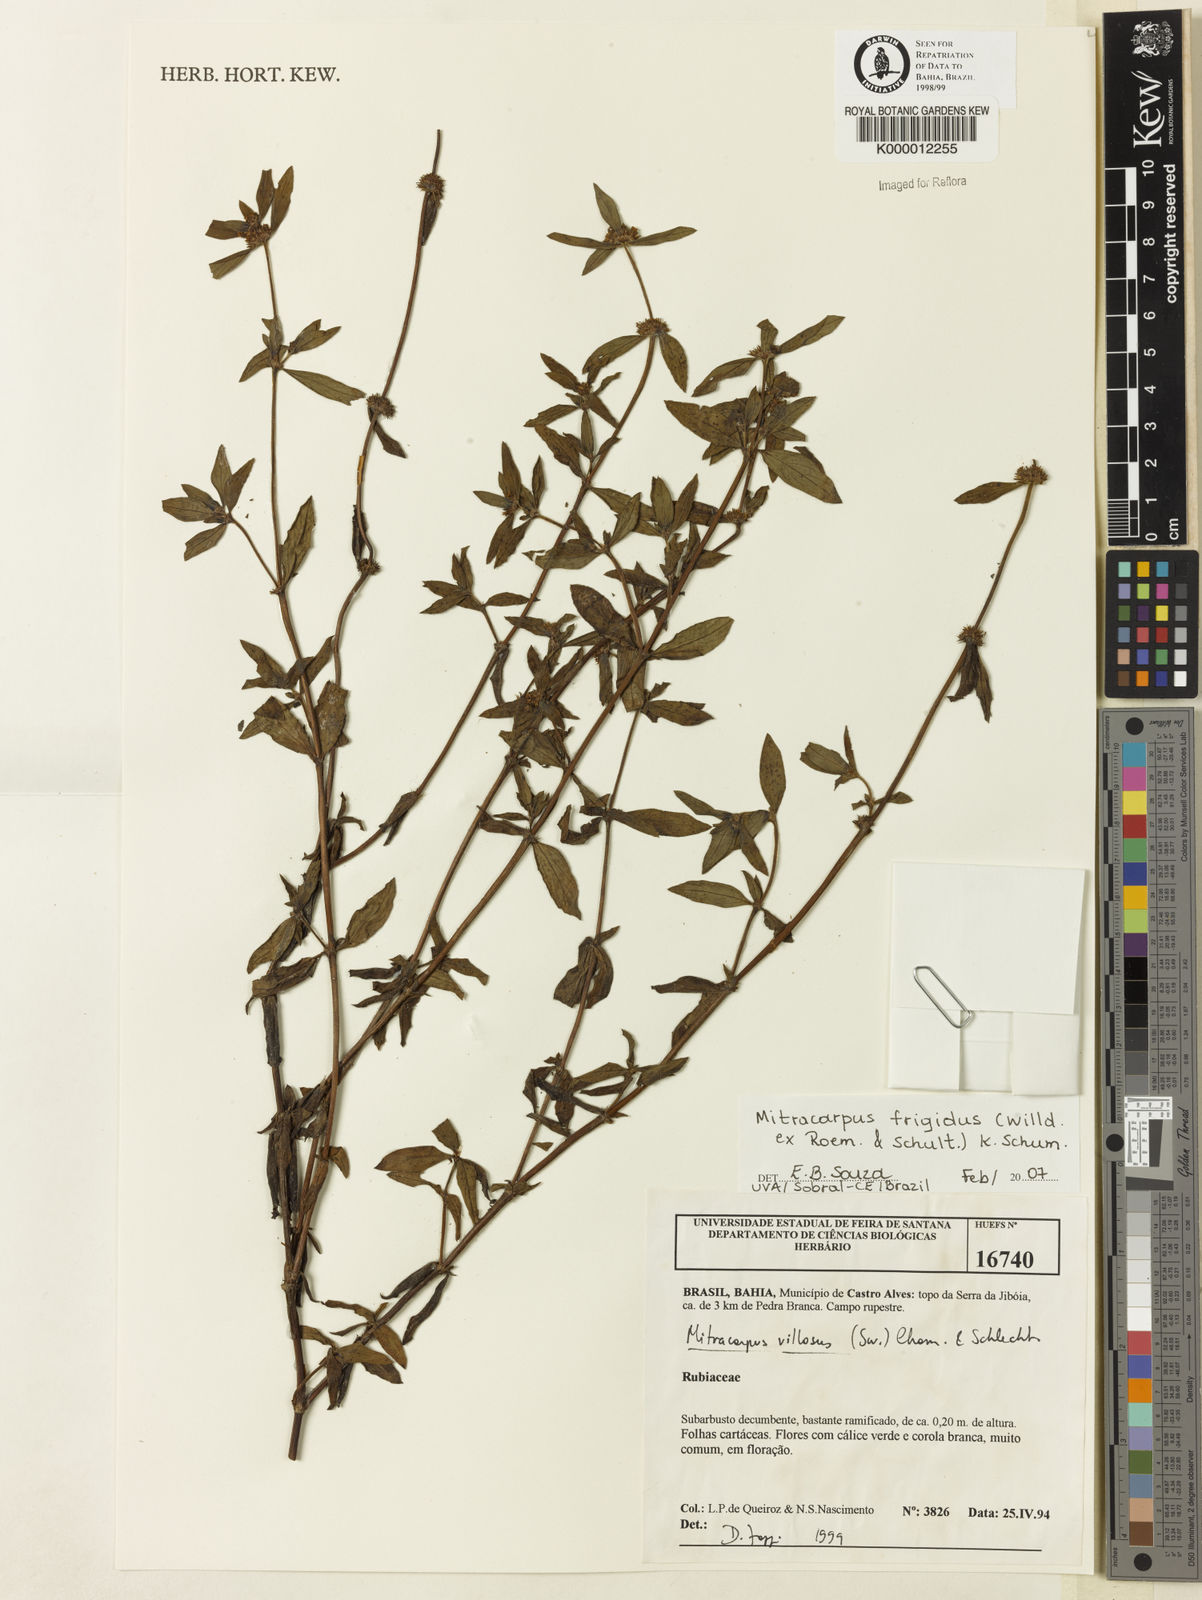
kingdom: Plantae
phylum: Tracheophyta
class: Magnoliopsida
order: Gentianales
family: Rubiaceae
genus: Mitracarpus
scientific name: Mitracarpus frigidus
